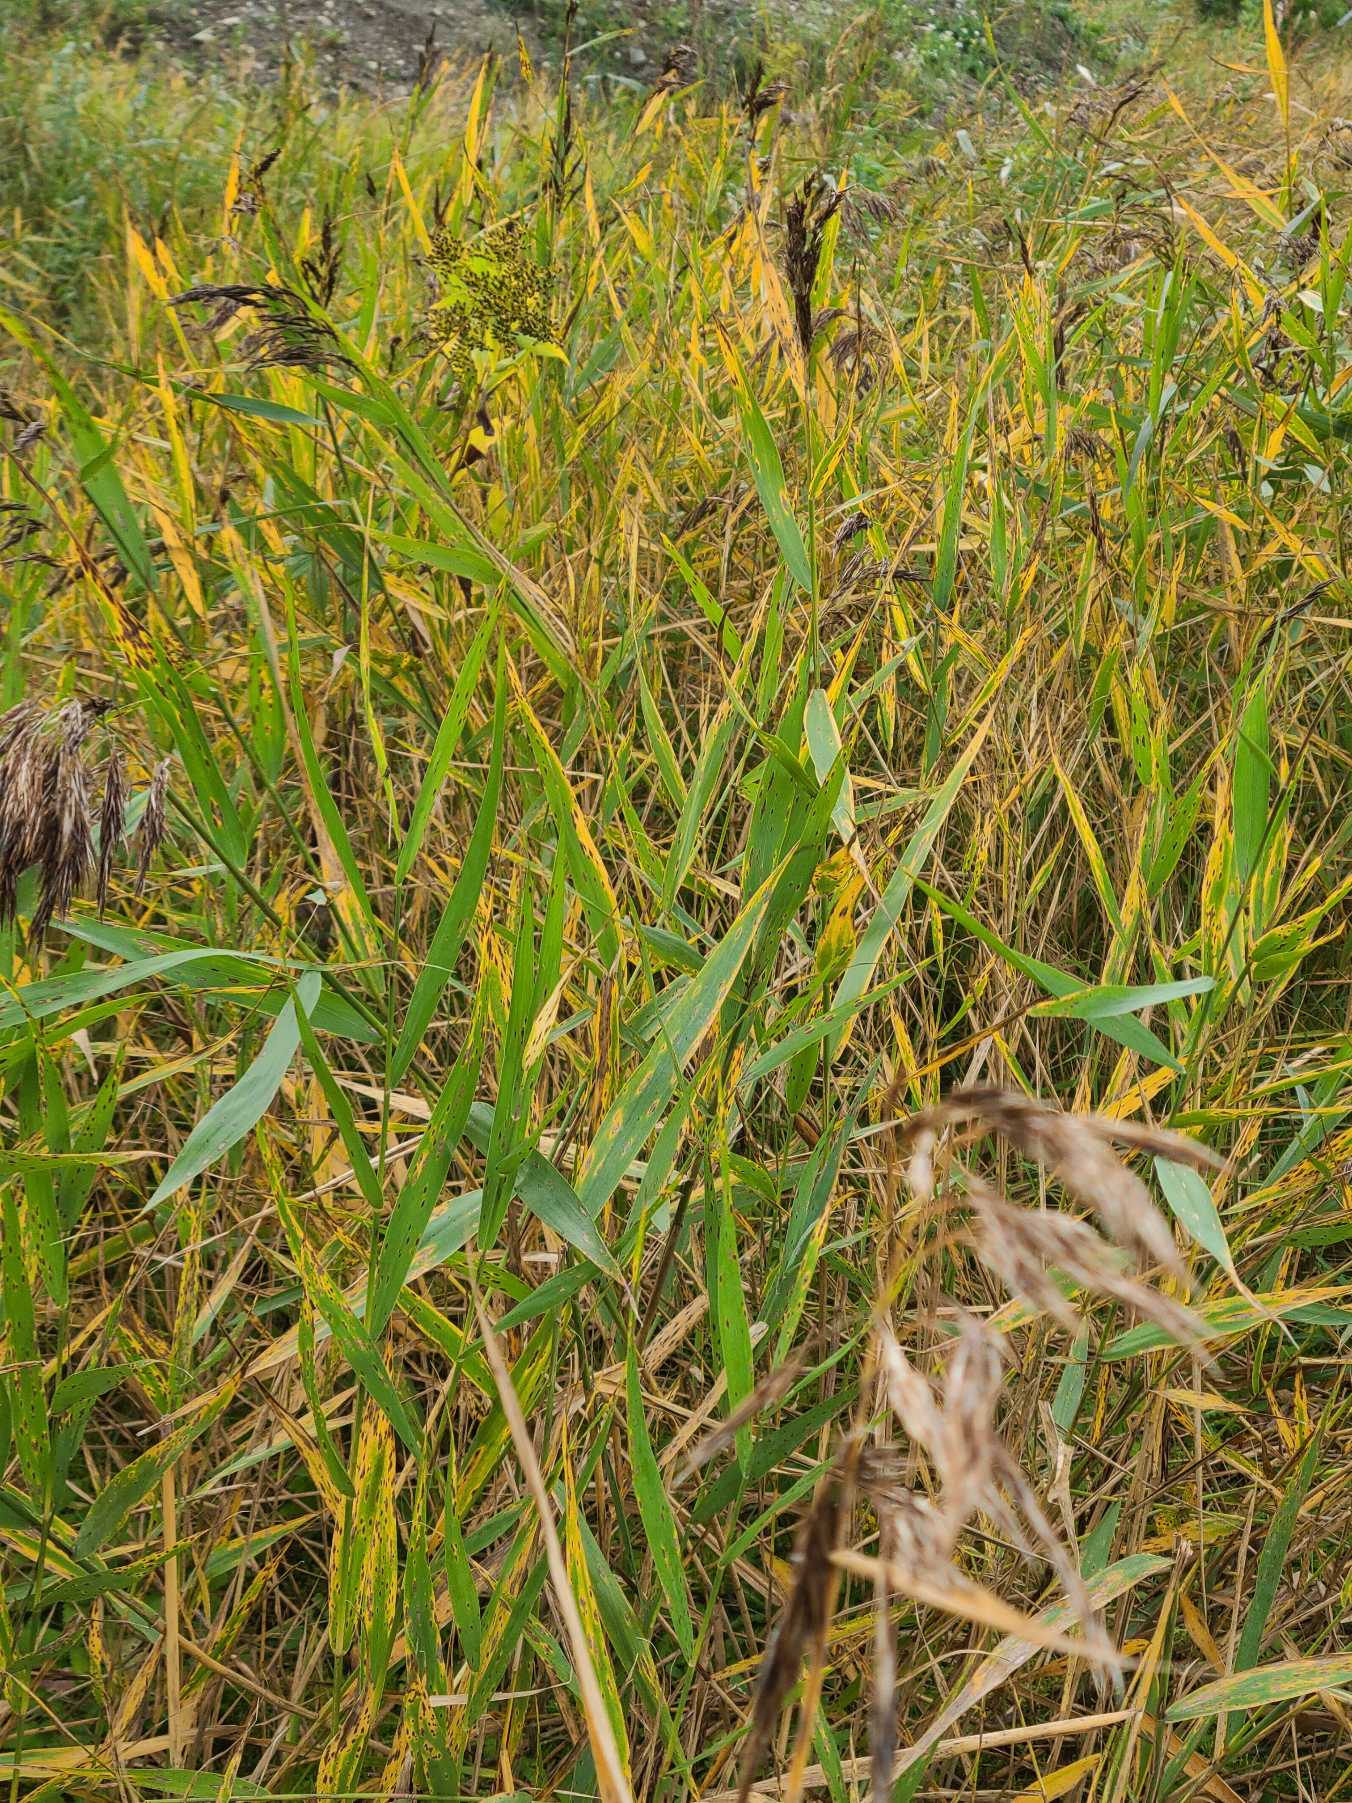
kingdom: Plantae
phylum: Tracheophyta
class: Liliopsida
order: Poales
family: Poaceae
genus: Phragmites
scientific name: Phragmites australis
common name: Tagrør
